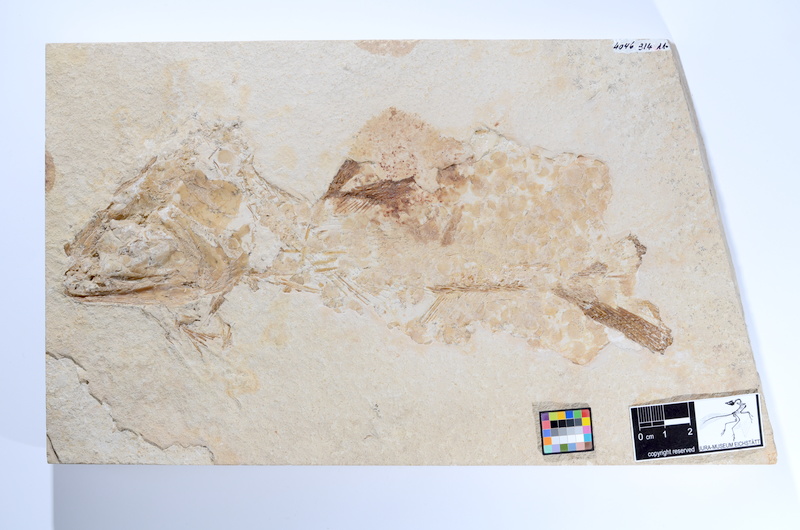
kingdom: Animalia
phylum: Chordata
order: Amiiformes
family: Caturidae
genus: Caturus
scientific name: Caturus
